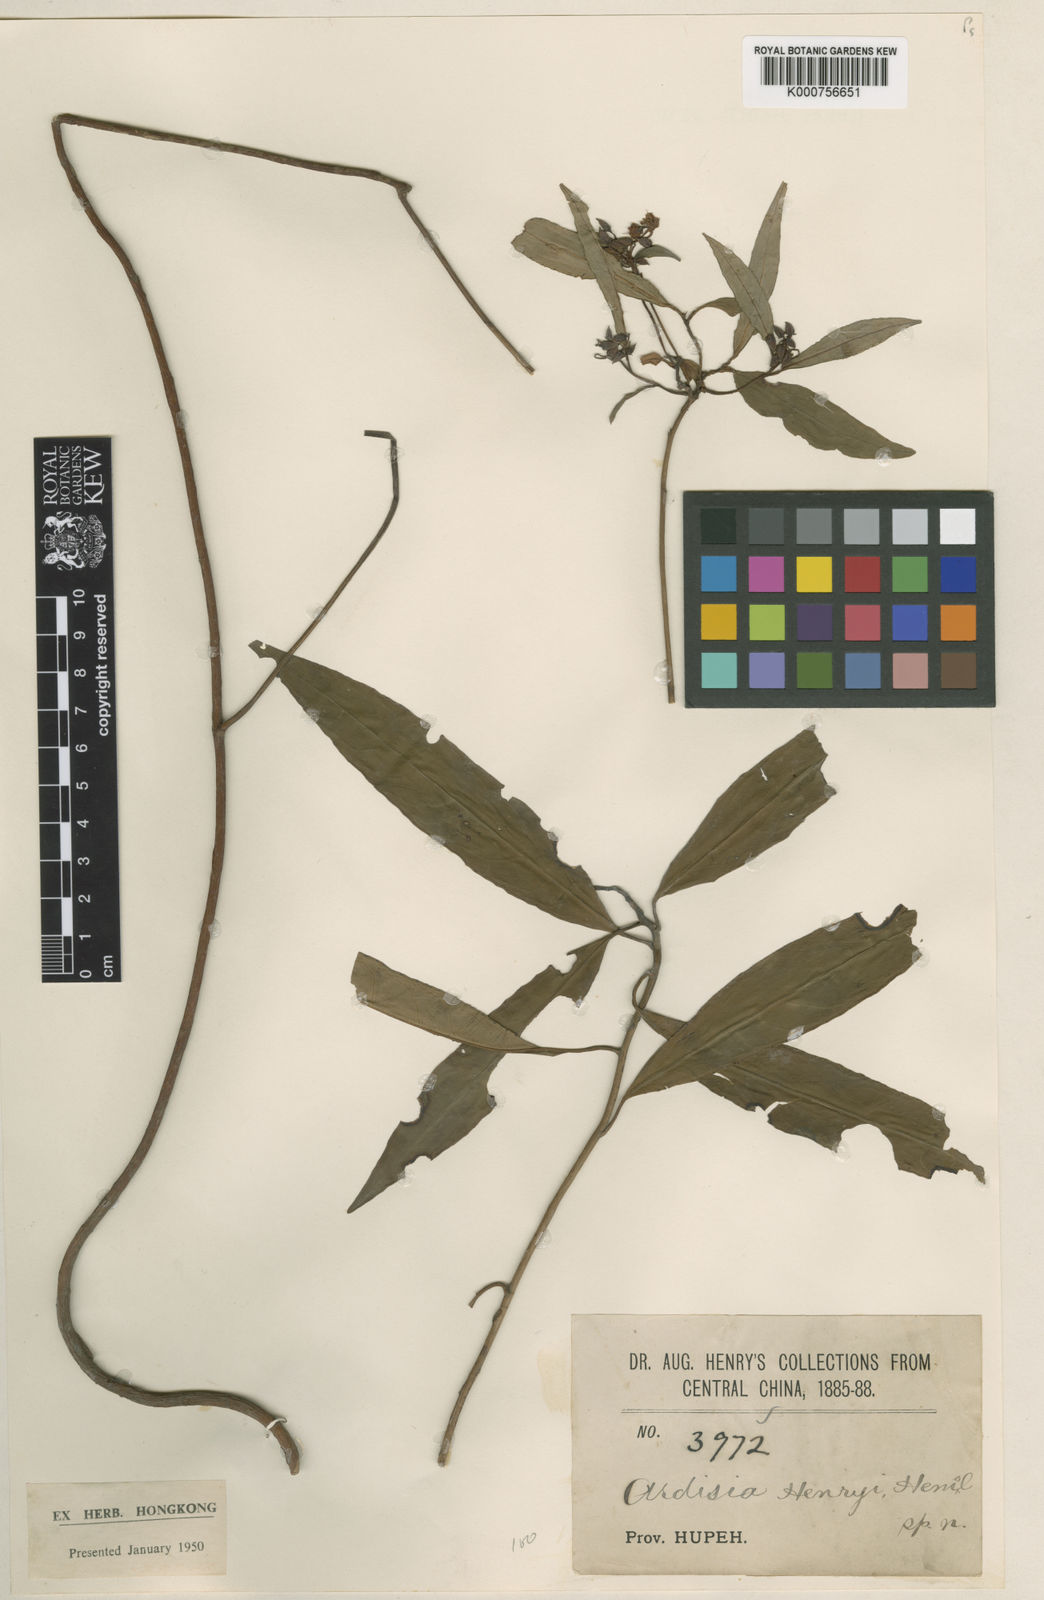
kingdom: Plantae
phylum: Tracheophyta
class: Magnoliopsida
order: Ericales
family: Primulaceae
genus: Ardisia
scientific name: Ardisia crispa
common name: Japanese-holly
